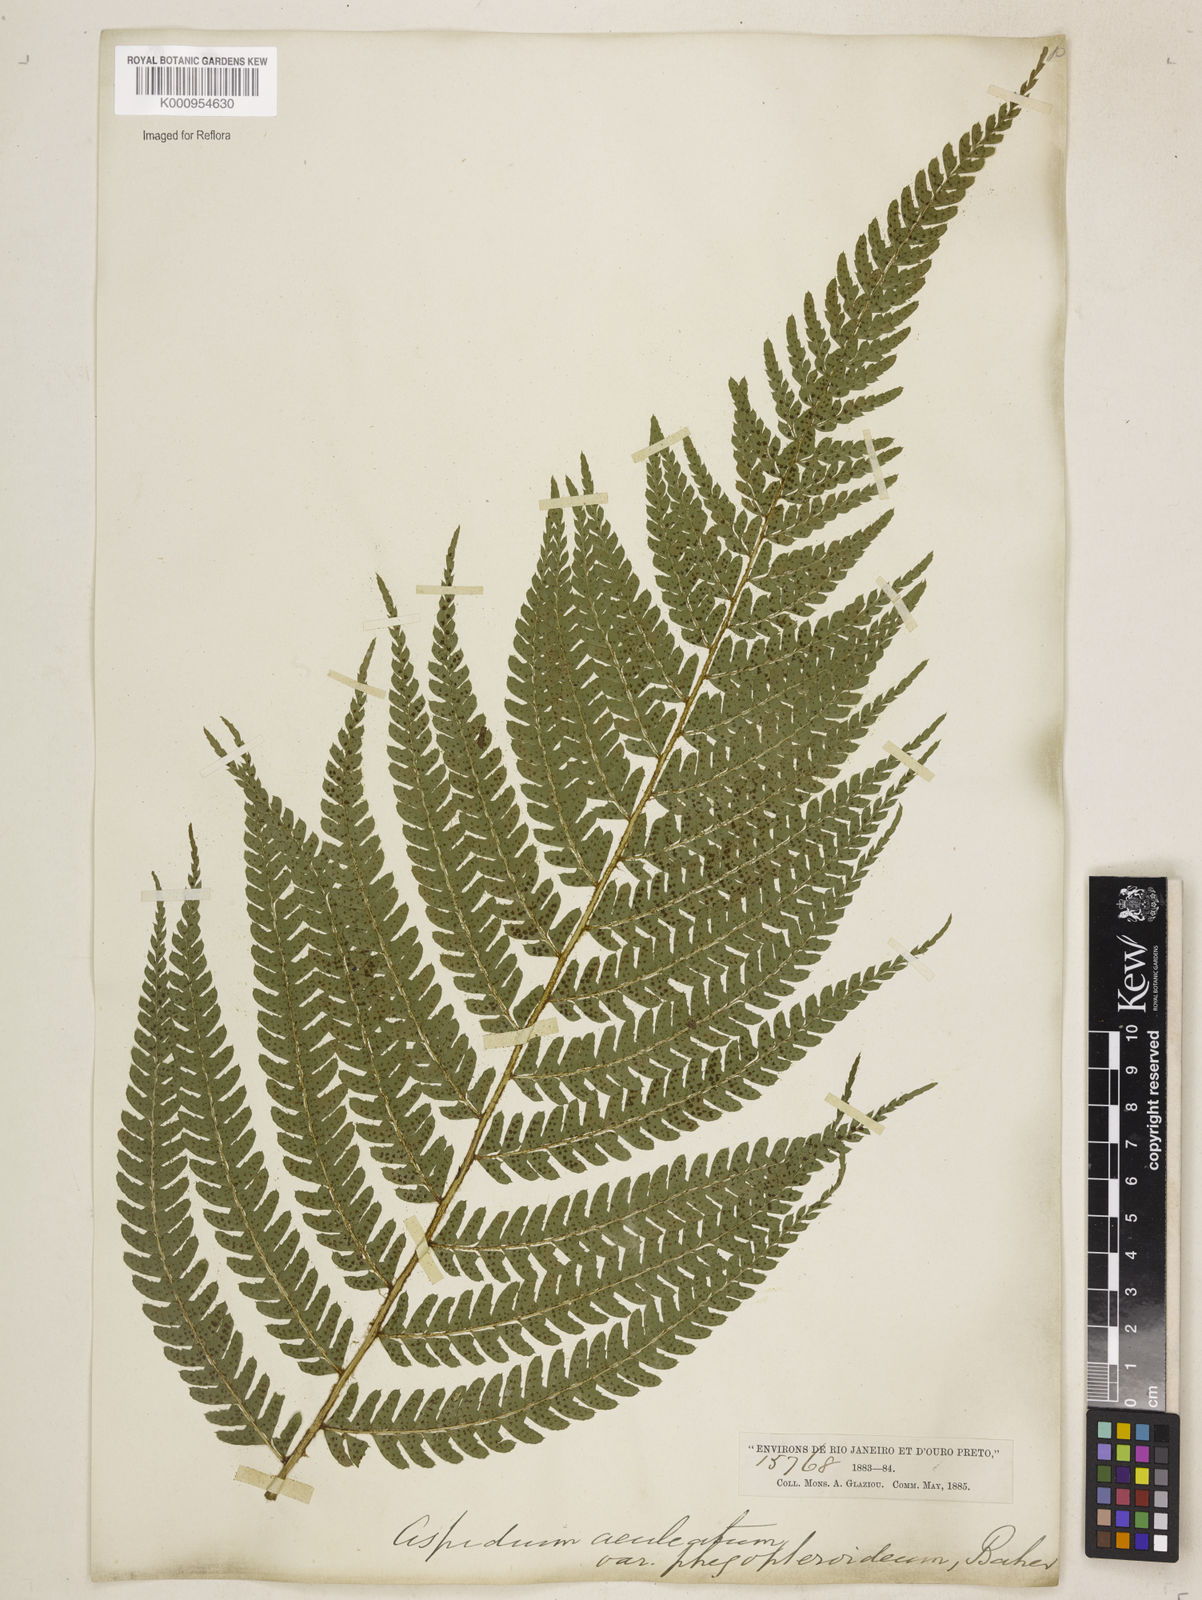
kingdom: Plantae
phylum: Tracheophyta
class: Polypodiopsida
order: Polypodiales
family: Dryopteridaceae
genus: Polystichum
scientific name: Polystichum
